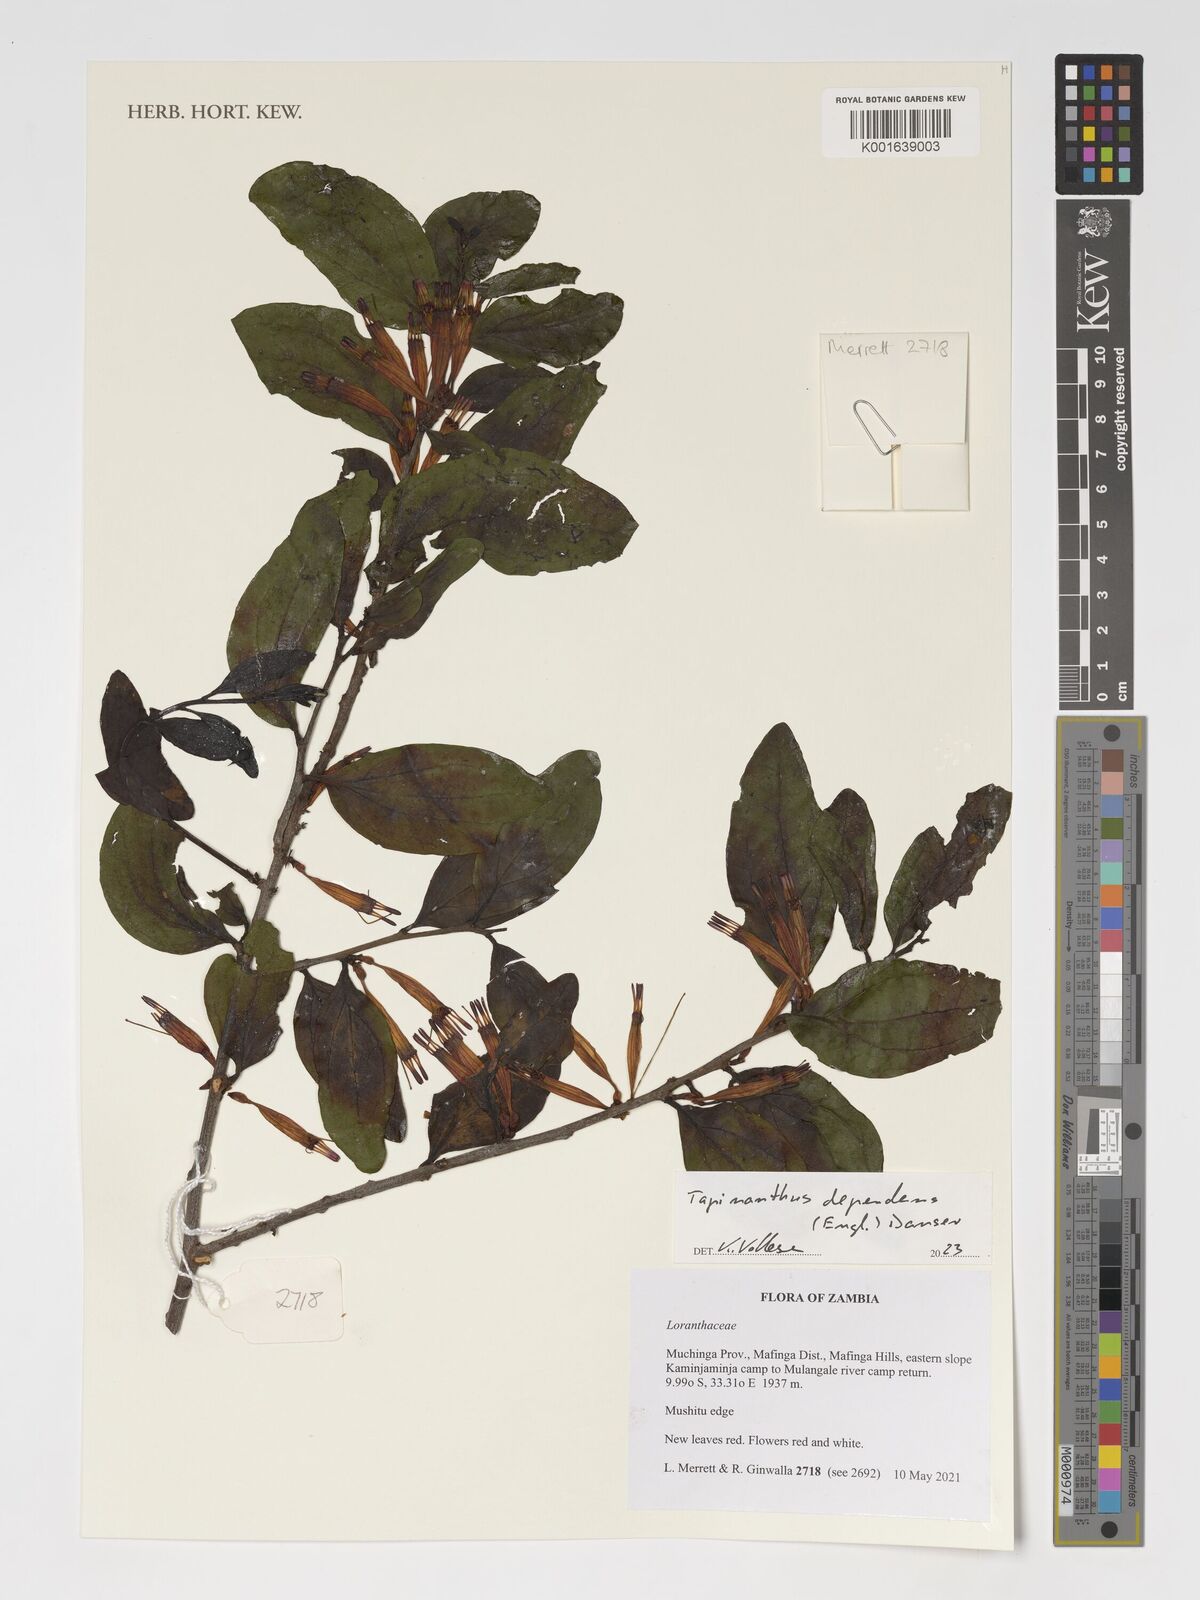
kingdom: Plantae
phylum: Tracheophyta
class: Magnoliopsida
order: Santalales
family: Loranthaceae
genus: Tapinanthus
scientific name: Tapinanthus dependens
